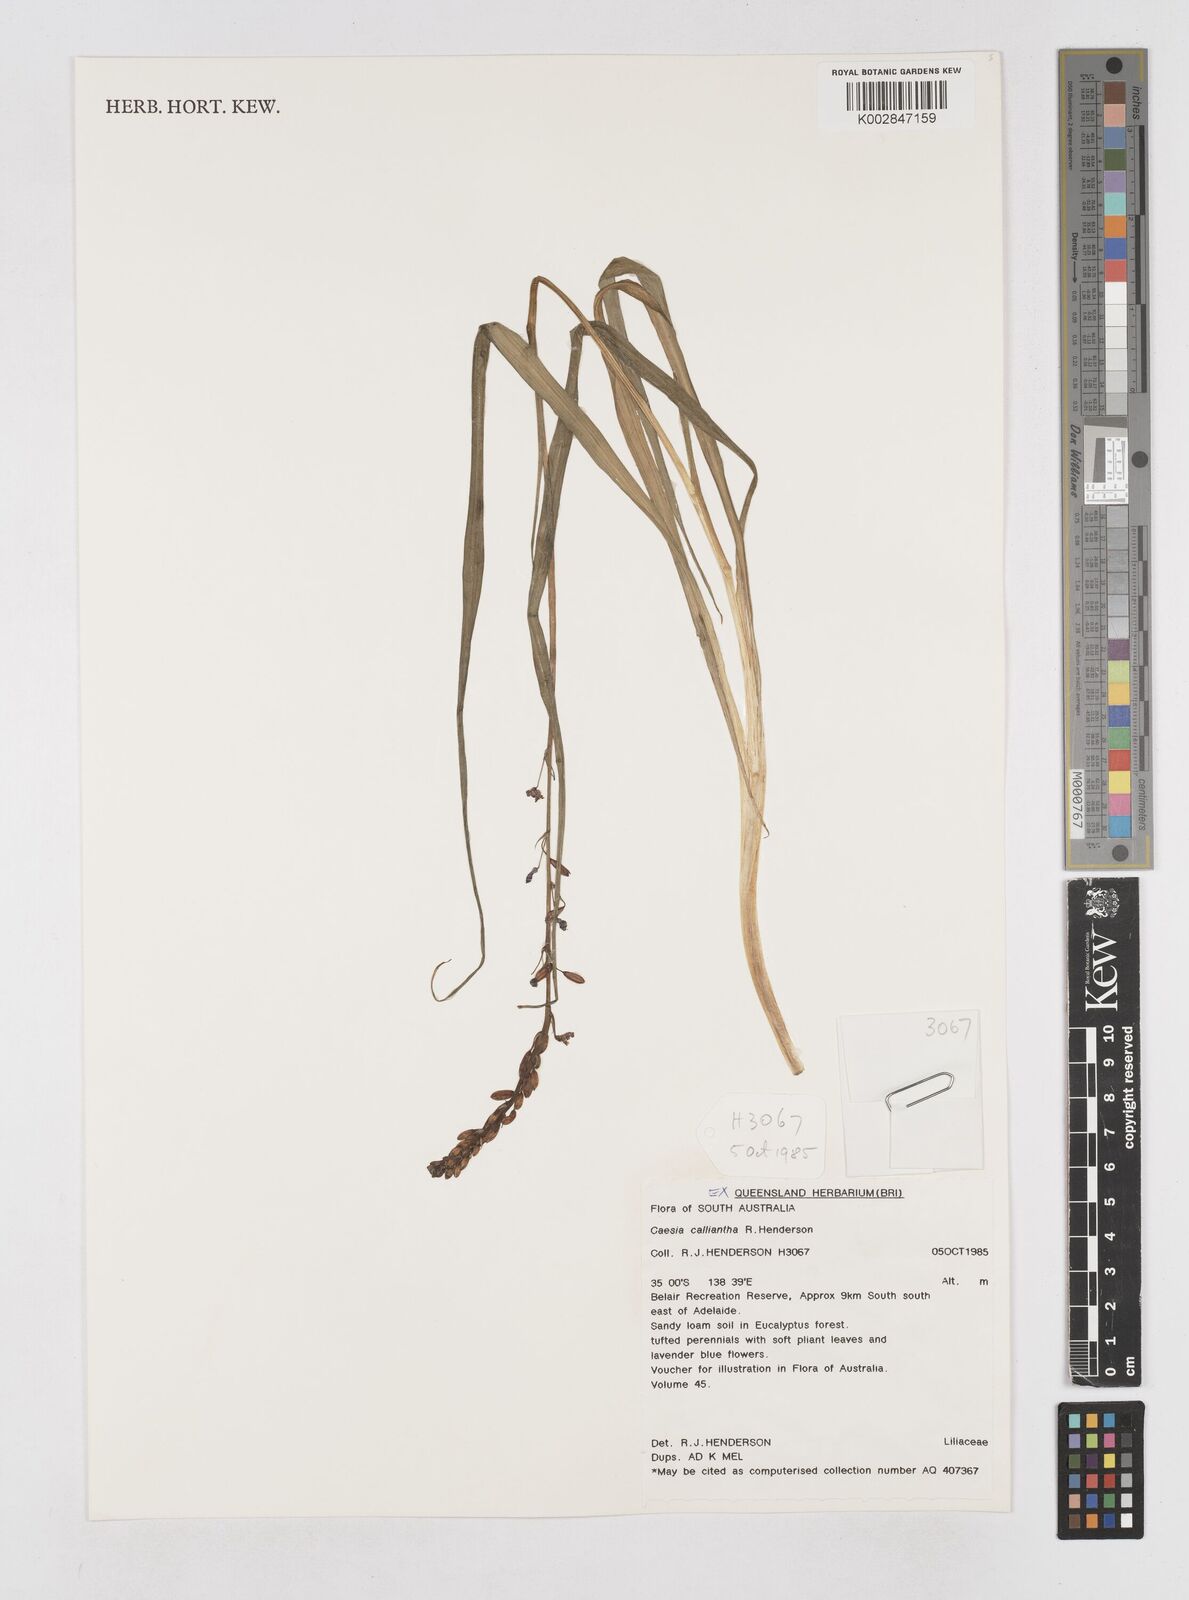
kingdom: Plantae
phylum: Tracheophyta
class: Liliopsida
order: Asparagales
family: Asphodelaceae
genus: Caesia
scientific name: Caesia calliantha
